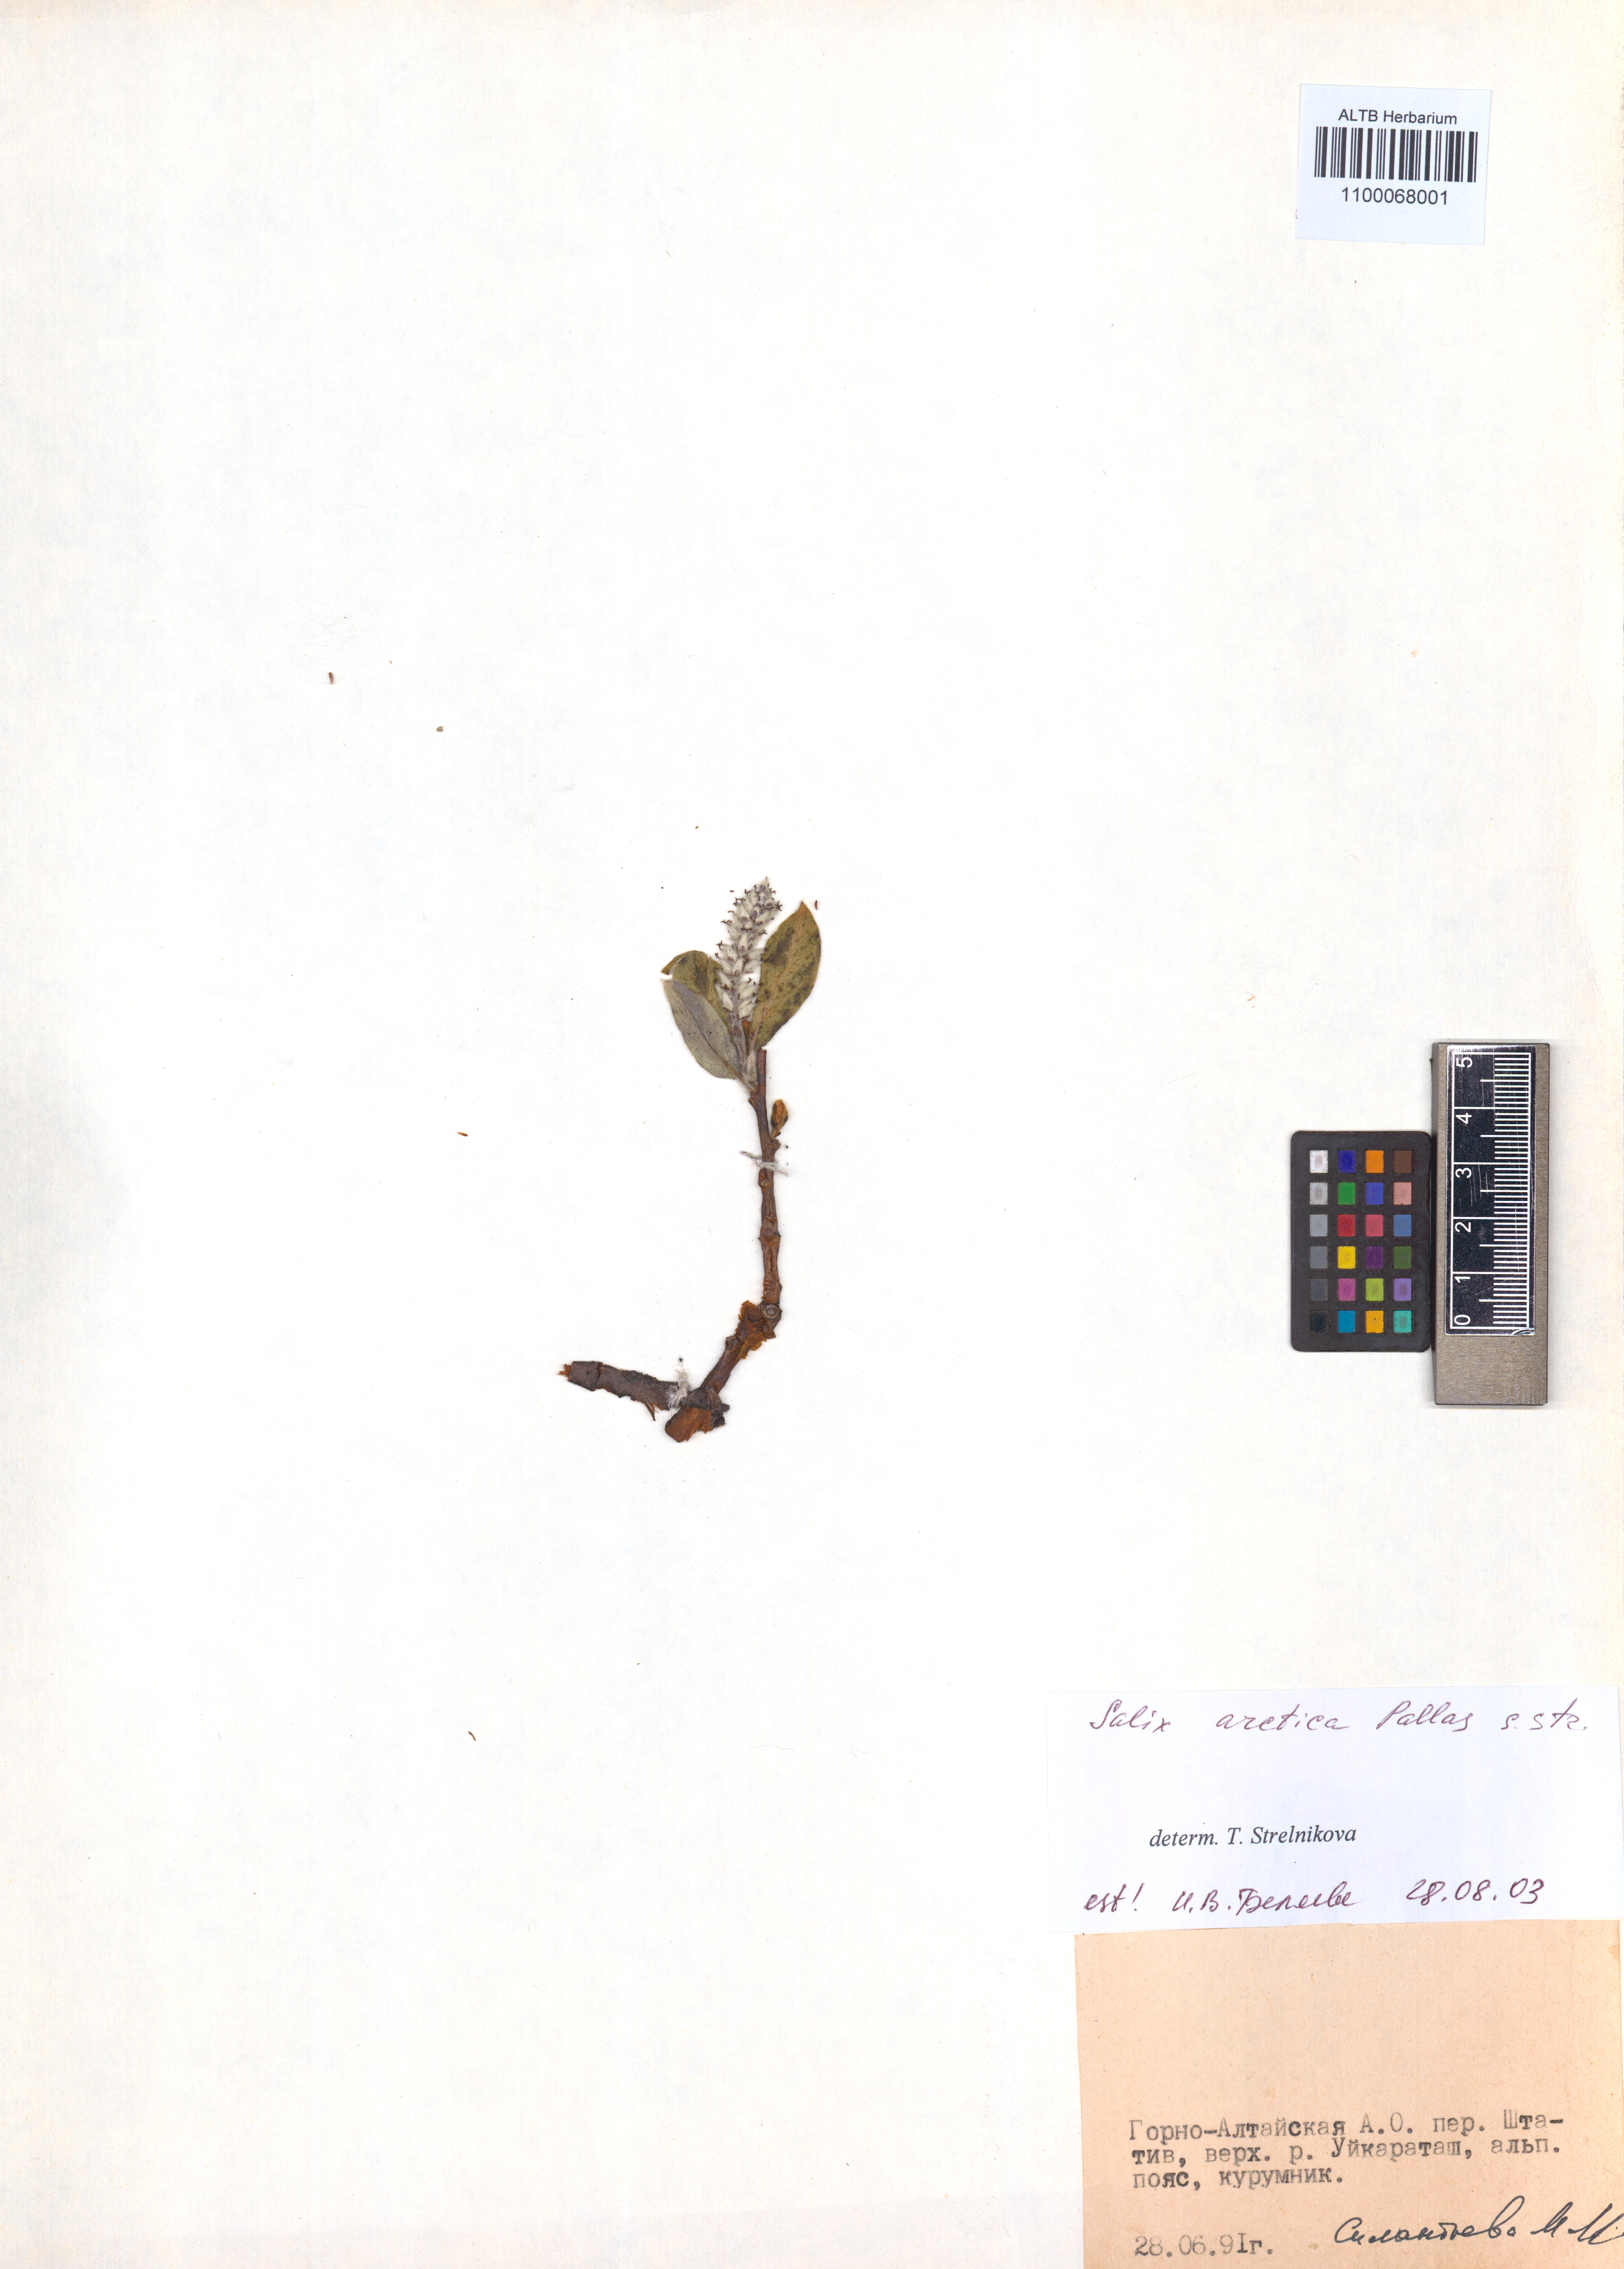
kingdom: Plantae
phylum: Tracheophyta
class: Magnoliopsida
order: Malpighiales
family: Salicaceae
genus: Salix
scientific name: Salix arctica
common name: Arctic willow
